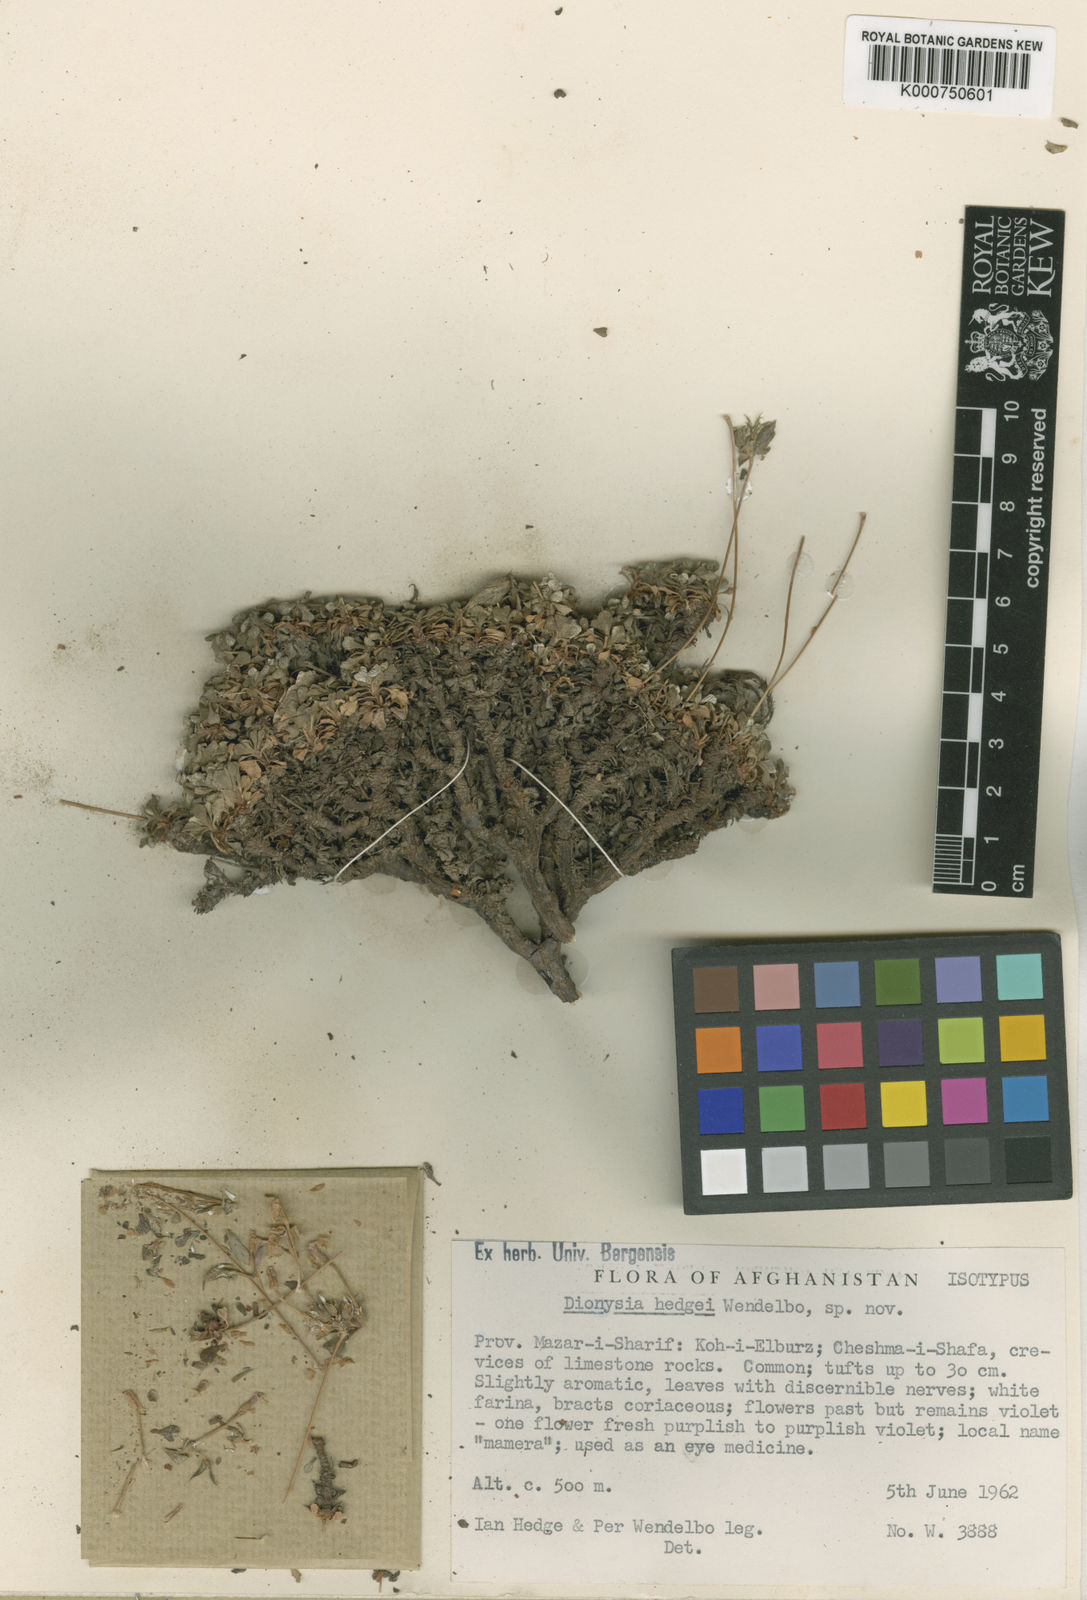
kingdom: Plantae
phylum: Tracheophyta
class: Magnoliopsida
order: Ericales
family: Primulaceae
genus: Dionysia
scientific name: Dionysia hedgei
